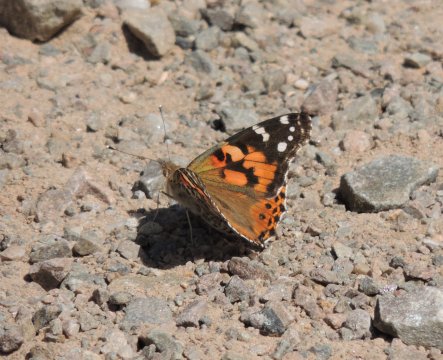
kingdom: Animalia
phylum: Arthropoda
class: Insecta
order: Lepidoptera
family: Nymphalidae
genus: Vanessa
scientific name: Vanessa cardui
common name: Painted Lady
